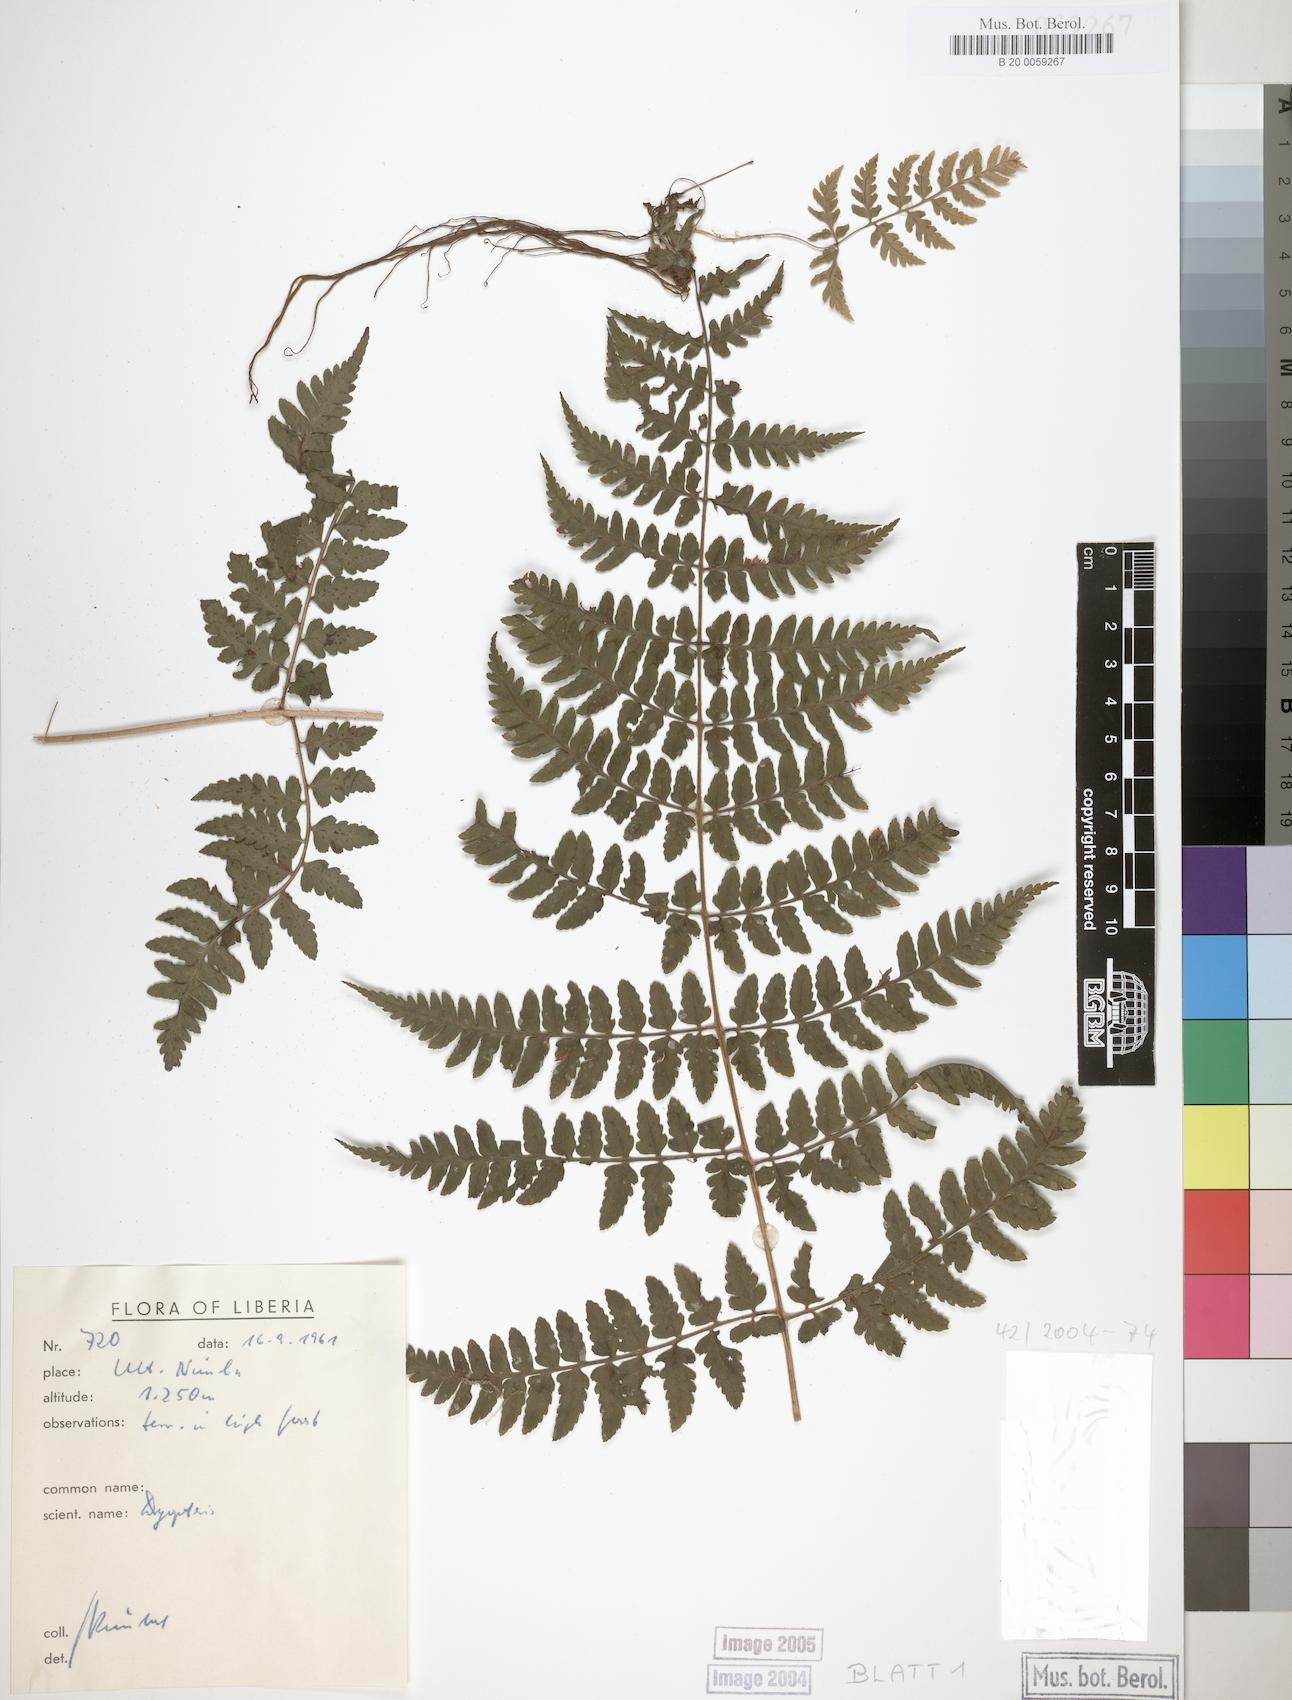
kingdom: Plantae
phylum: Tracheophyta
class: Polypodiopsida
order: Polypodiales
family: Dryopteridaceae
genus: Dryopteris
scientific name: Dryopteris manniana
